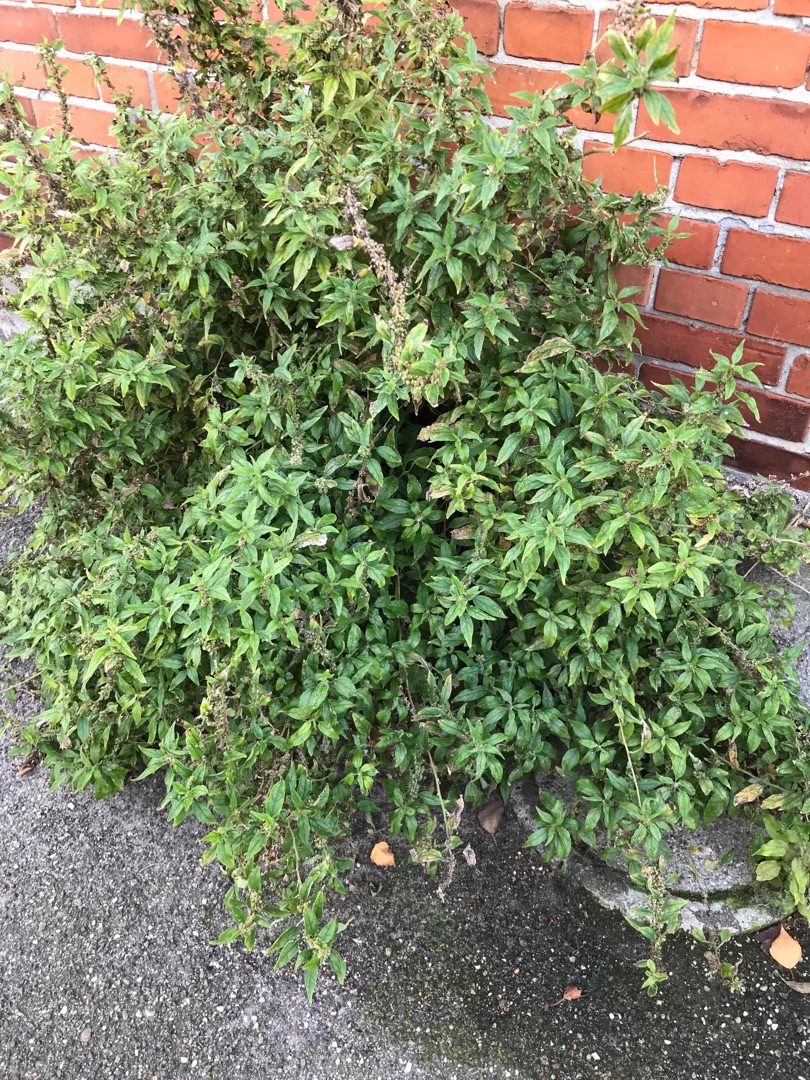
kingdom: Plantae
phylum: Tracheophyta
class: Magnoliopsida
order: Rosales
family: Urticaceae
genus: Parietaria
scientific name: Parietaria officinalis
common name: Almindelig springknap
